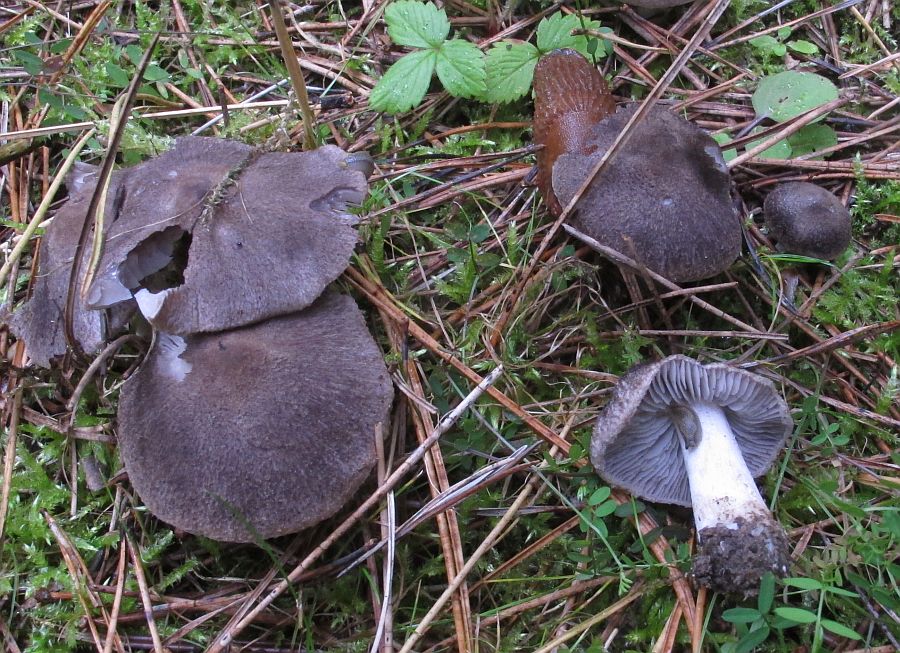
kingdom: Fungi
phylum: Basidiomycota
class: Agaricomycetes
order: Agaricales
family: Tricholomataceae
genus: Tricholoma
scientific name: Tricholoma terreum
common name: jordfarvet ridderhat
